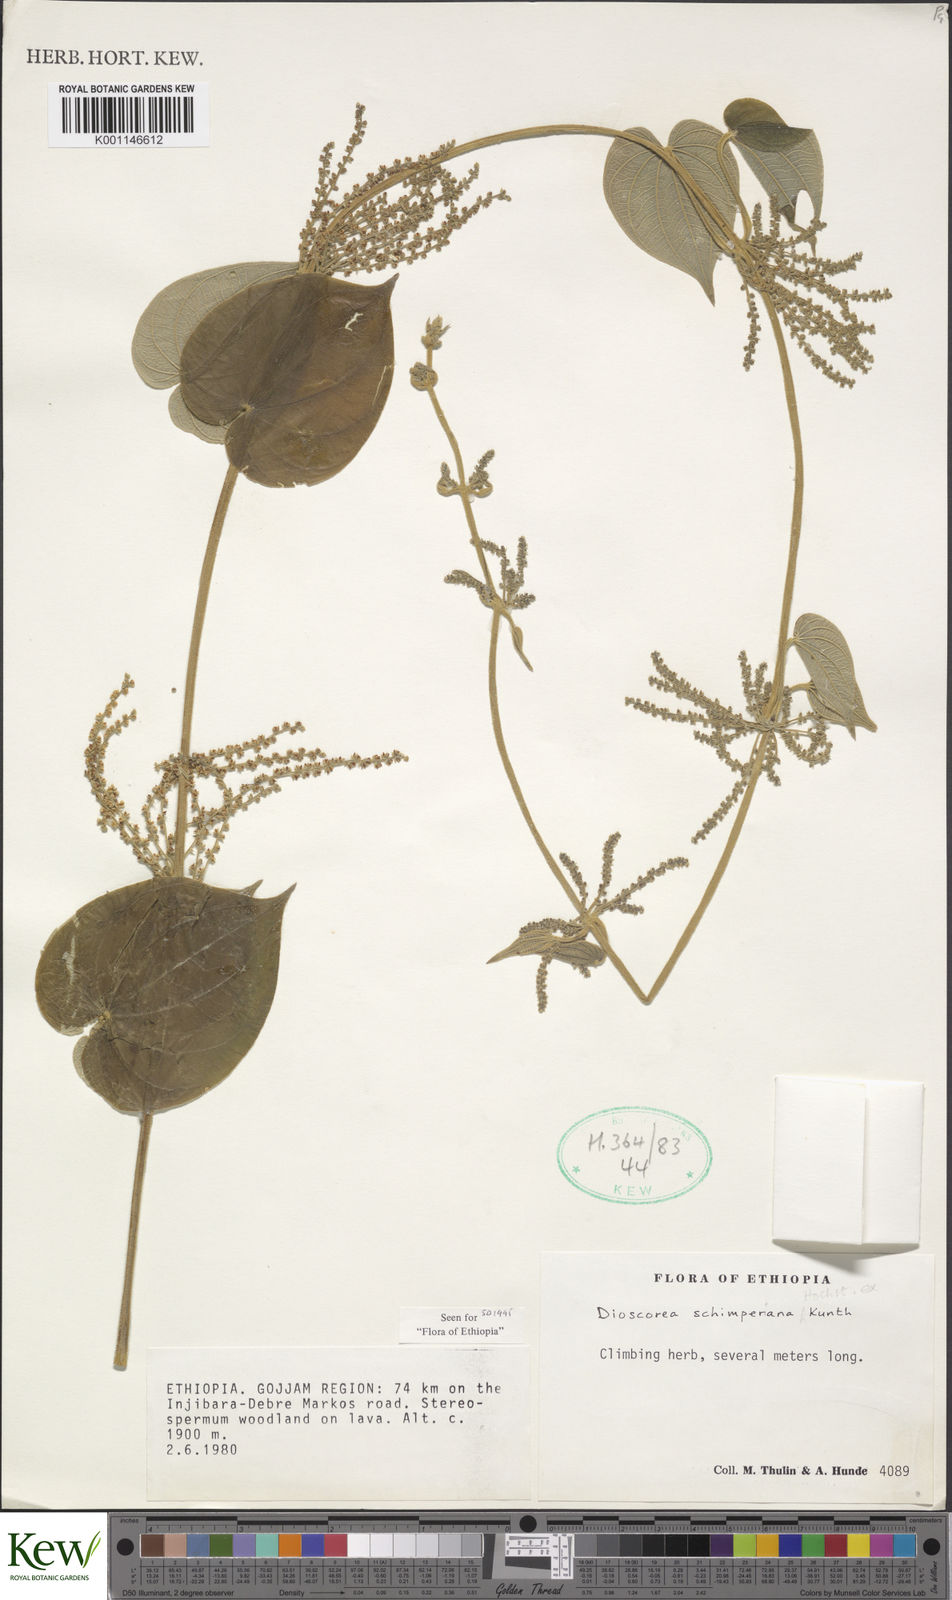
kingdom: Plantae
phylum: Tracheophyta
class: Liliopsida
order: Dioscoreales
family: Dioscoreaceae
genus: Dioscorea
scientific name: Dioscorea schimperiana
